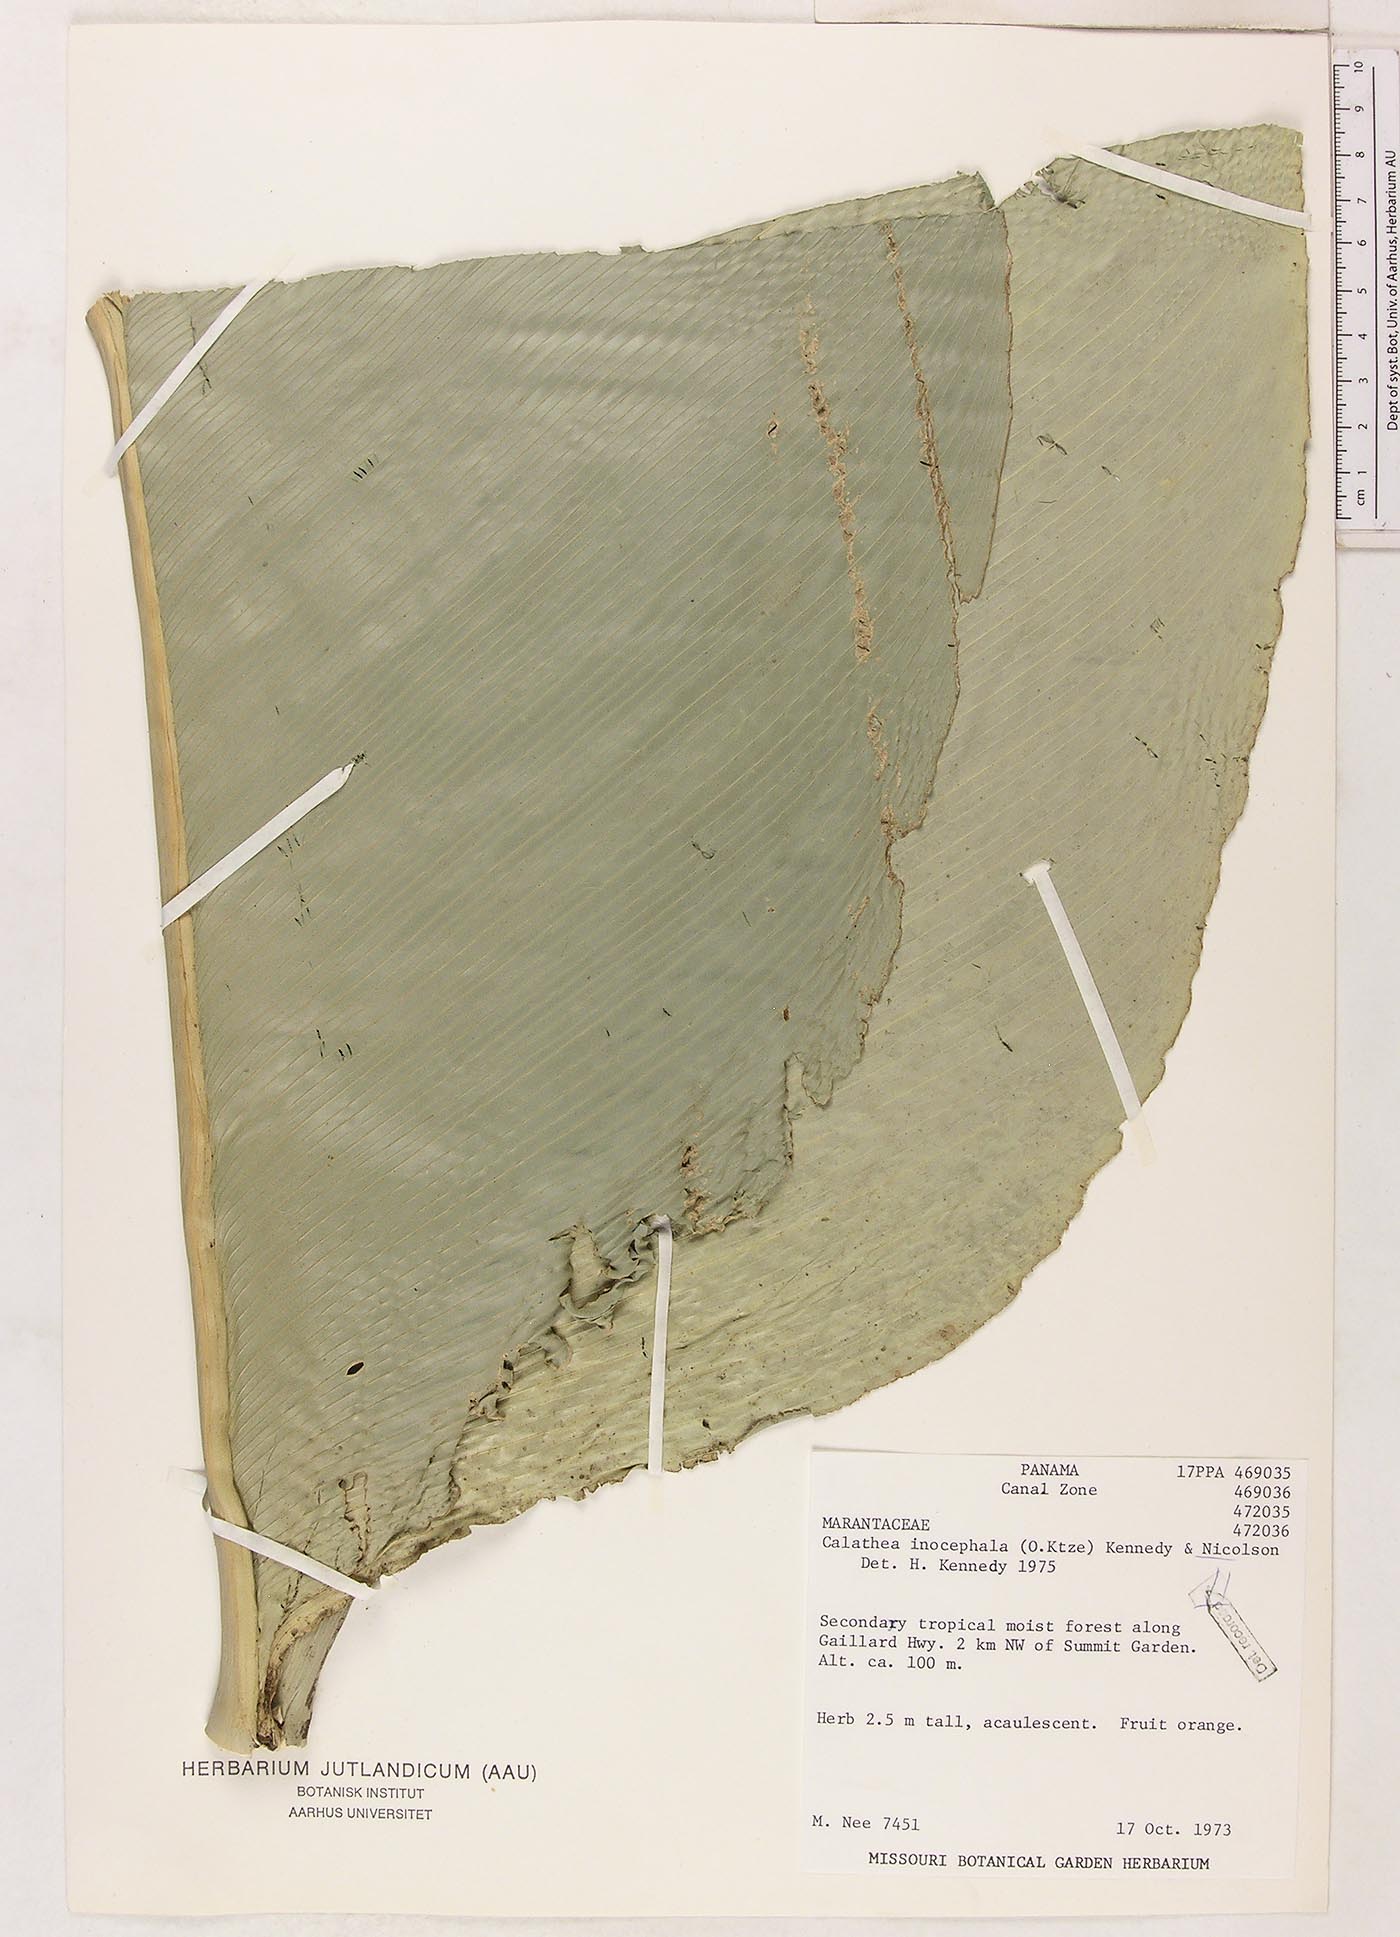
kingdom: Plantae
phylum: Tracheophyta
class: Liliopsida
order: Zingiberales
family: Marantaceae
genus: Goeppertia
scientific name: Goeppertia inocephala
